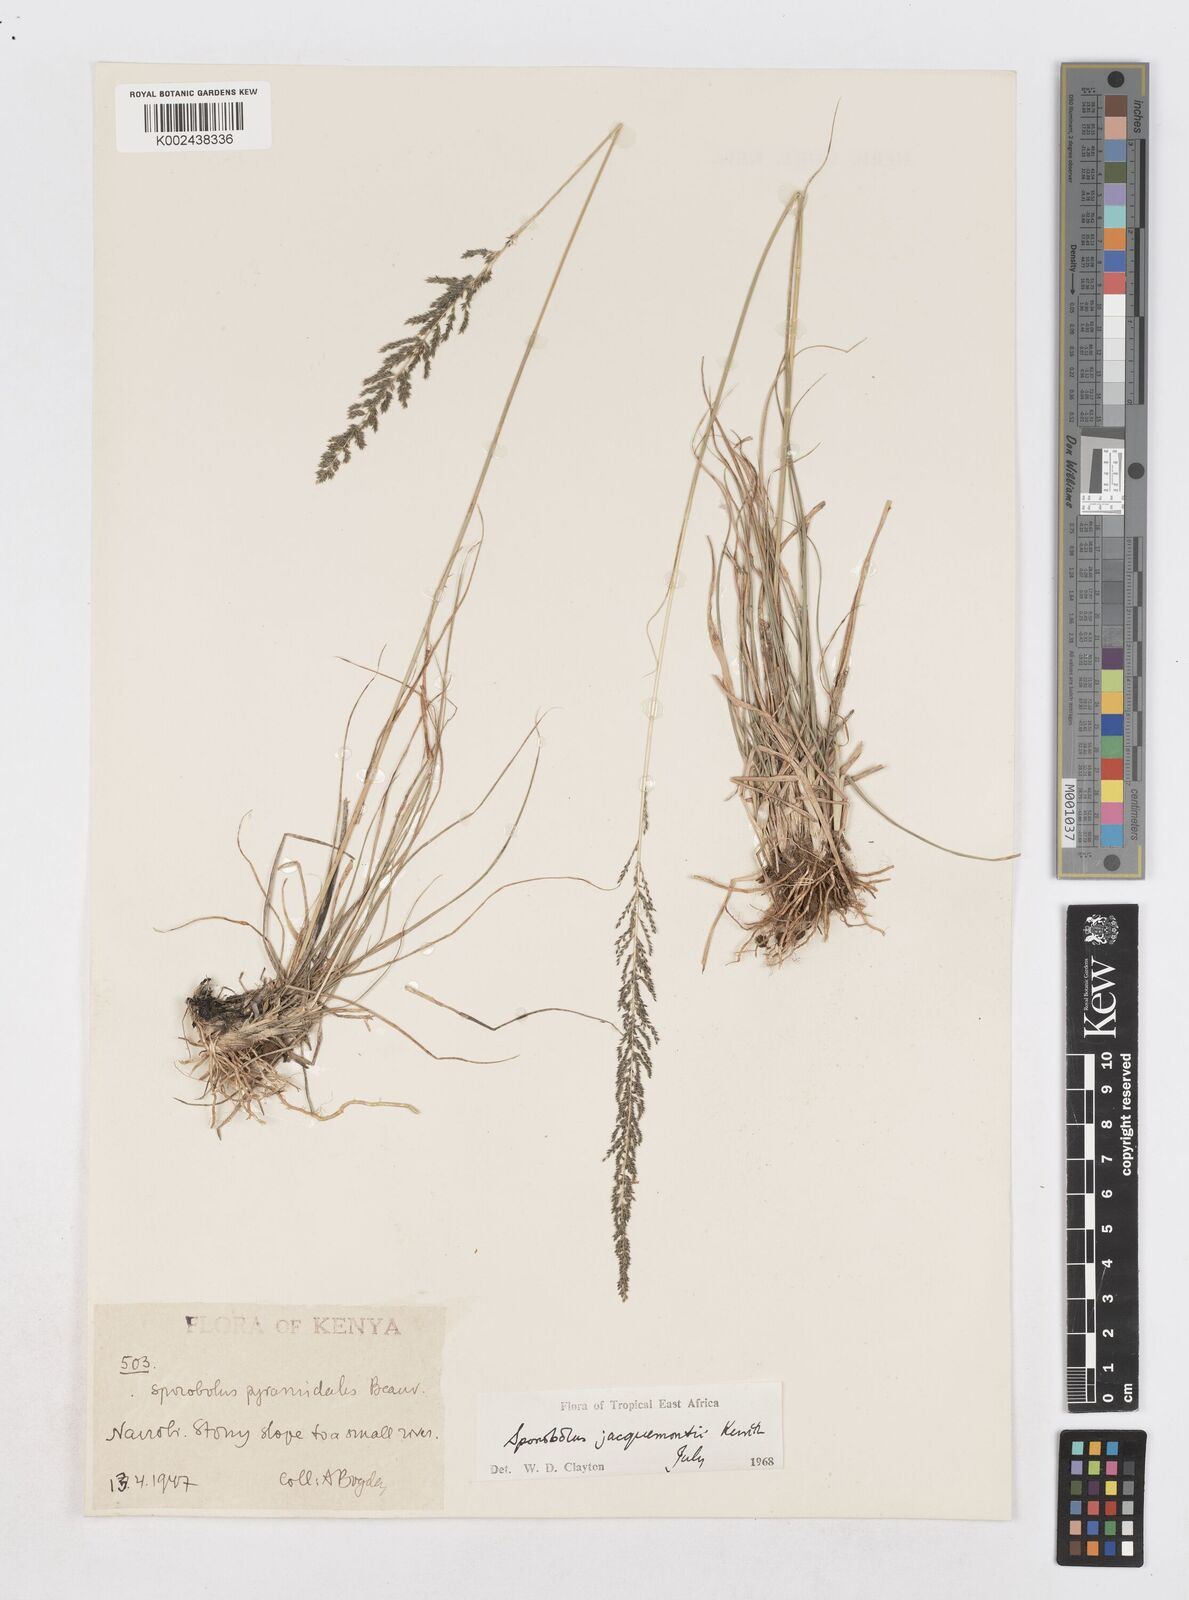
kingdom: Plantae
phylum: Tracheophyta
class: Liliopsida
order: Poales
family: Poaceae
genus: Sporobolus
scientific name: Sporobolus pyramidalis
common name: West indian dropseed
